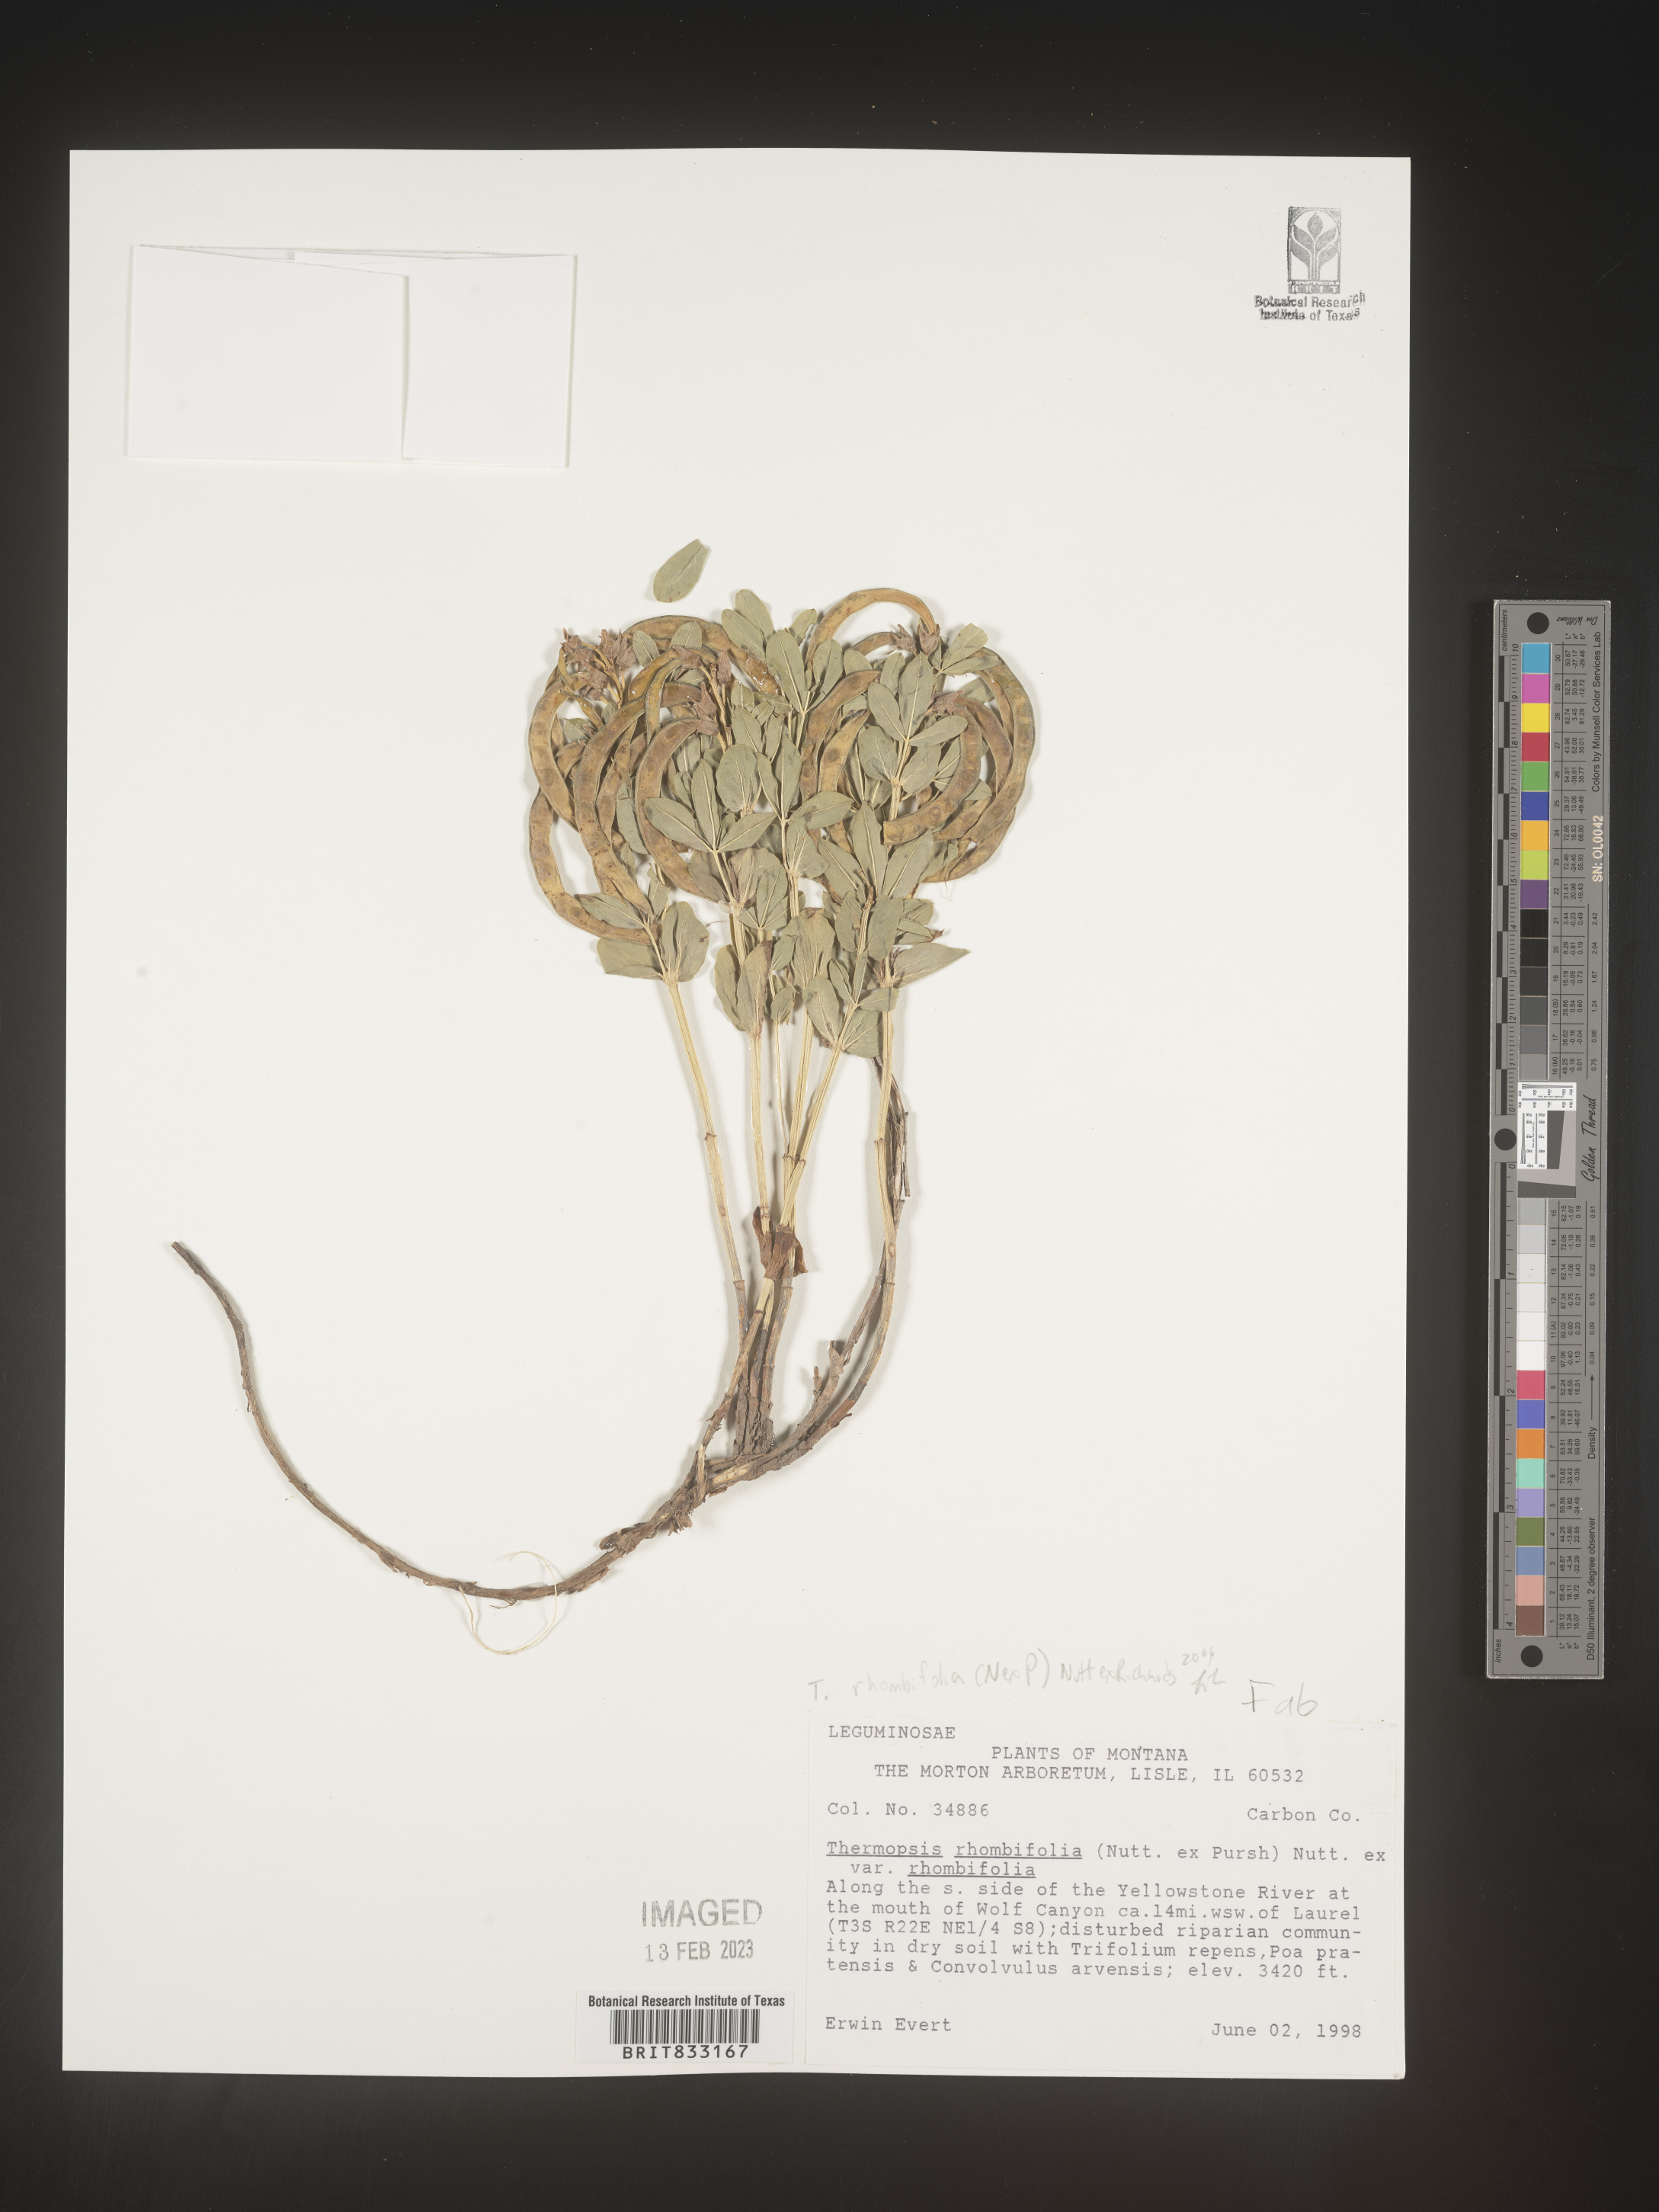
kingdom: Plantae
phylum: Tracheophyta
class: Magnoliopsida
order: Fabales
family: Fabaceae
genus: Thermopsis
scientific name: Thermopsis rhombifolia
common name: Circle-pod-pea
